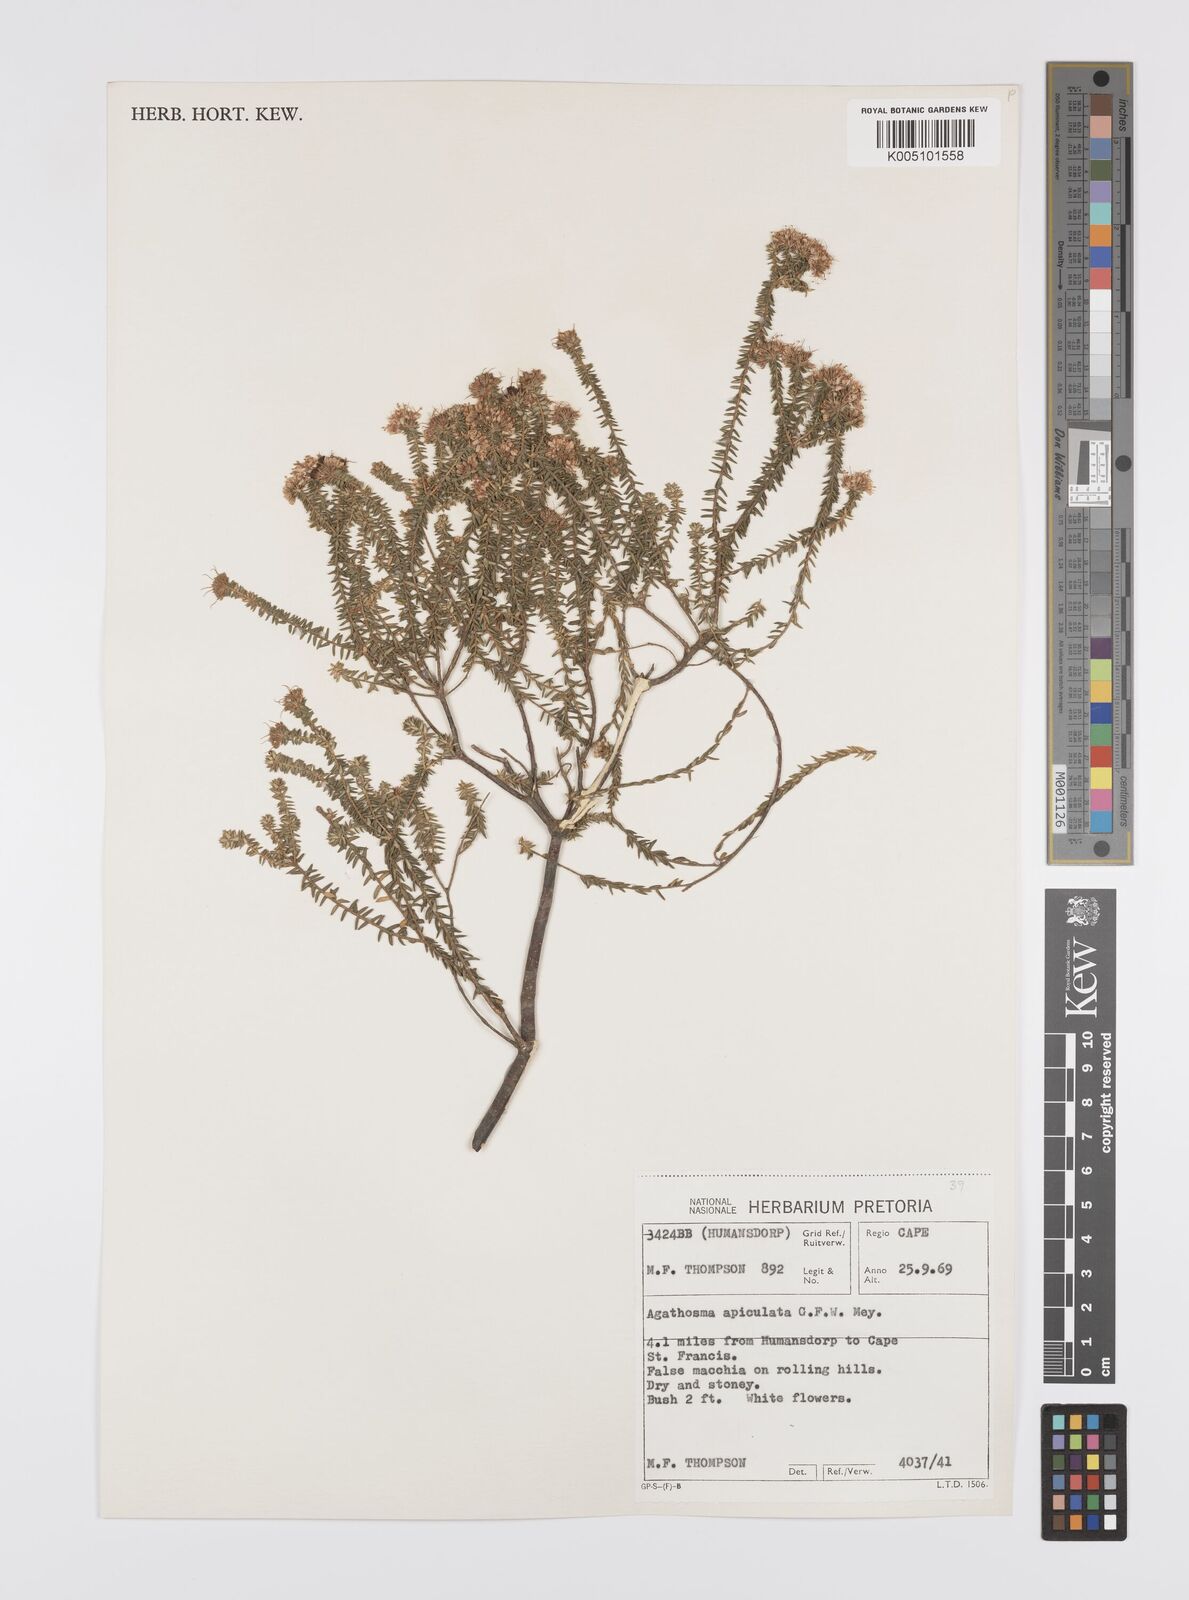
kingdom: Plantae
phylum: Tracheophyta
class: Magnoliopsida
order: Sapindales
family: Rutaceae
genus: Agathosma
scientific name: Agathosma
